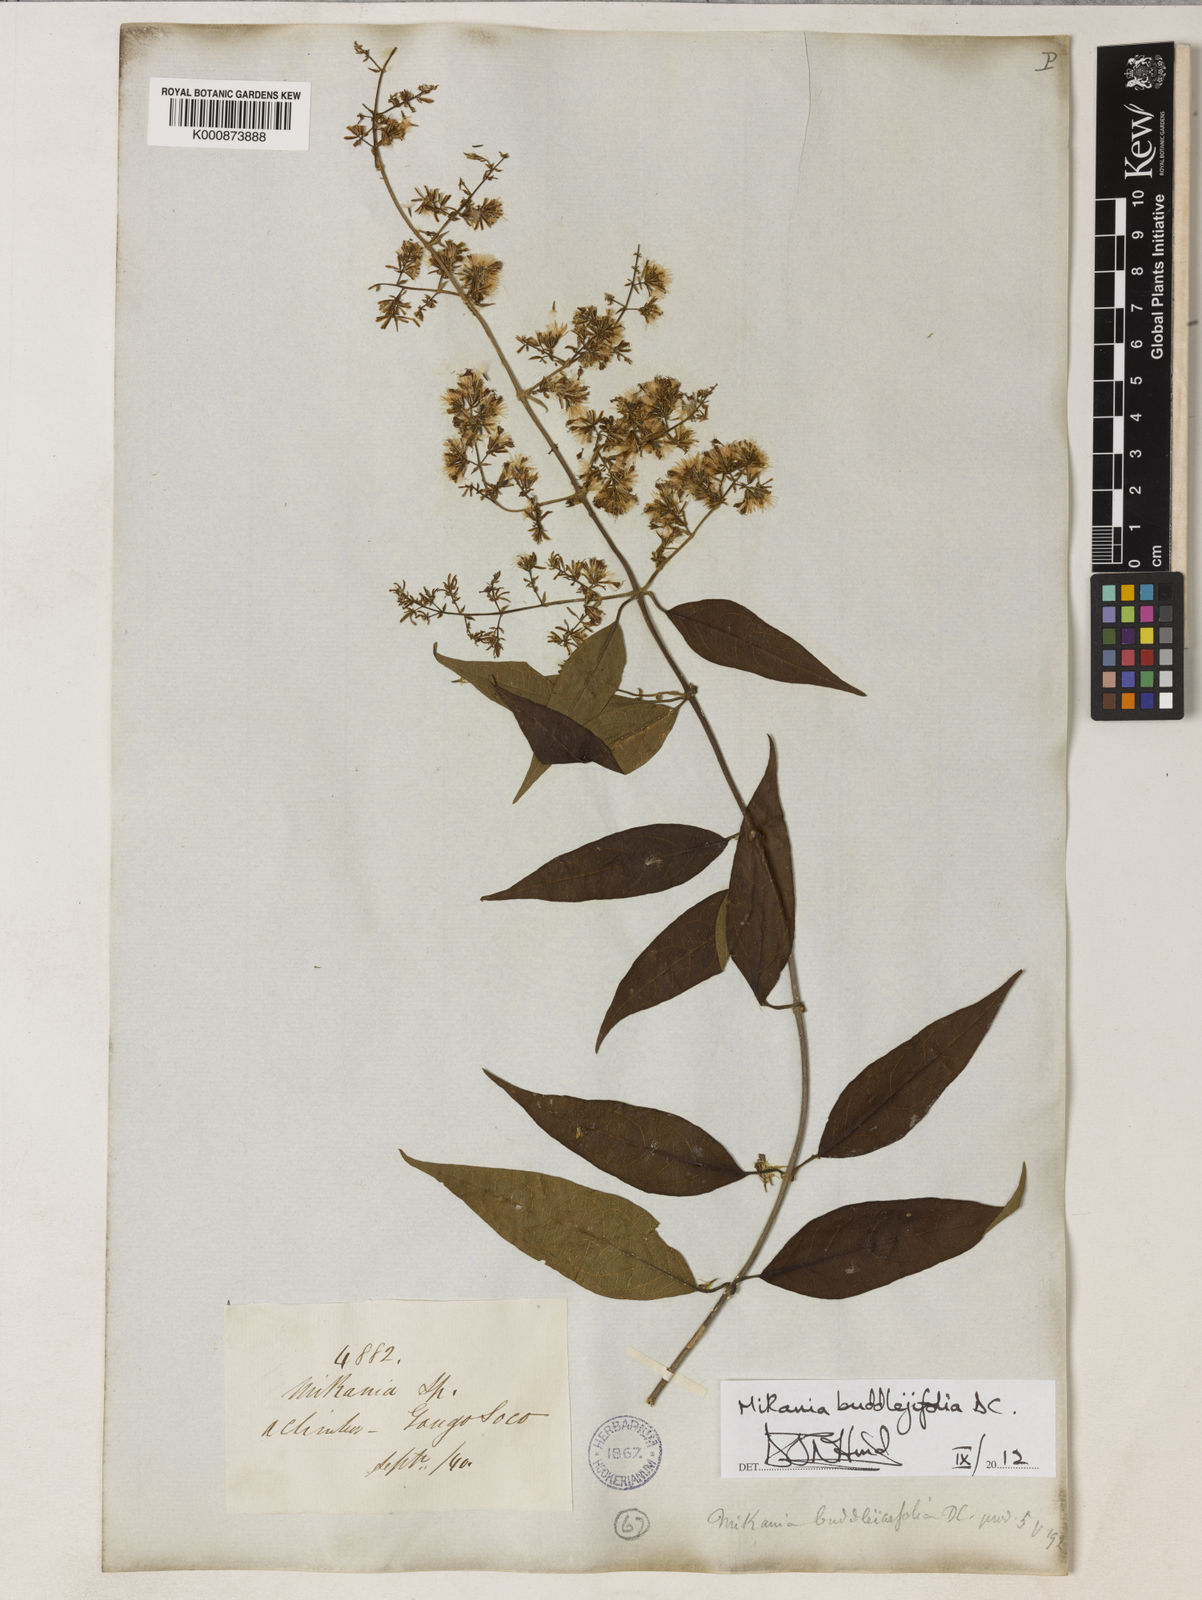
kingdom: Plantae
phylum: Tracheophyta
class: Magnoliopsida
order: Asterales
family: Asteraceae
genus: Mikania
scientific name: Mikania buddlejifolia
